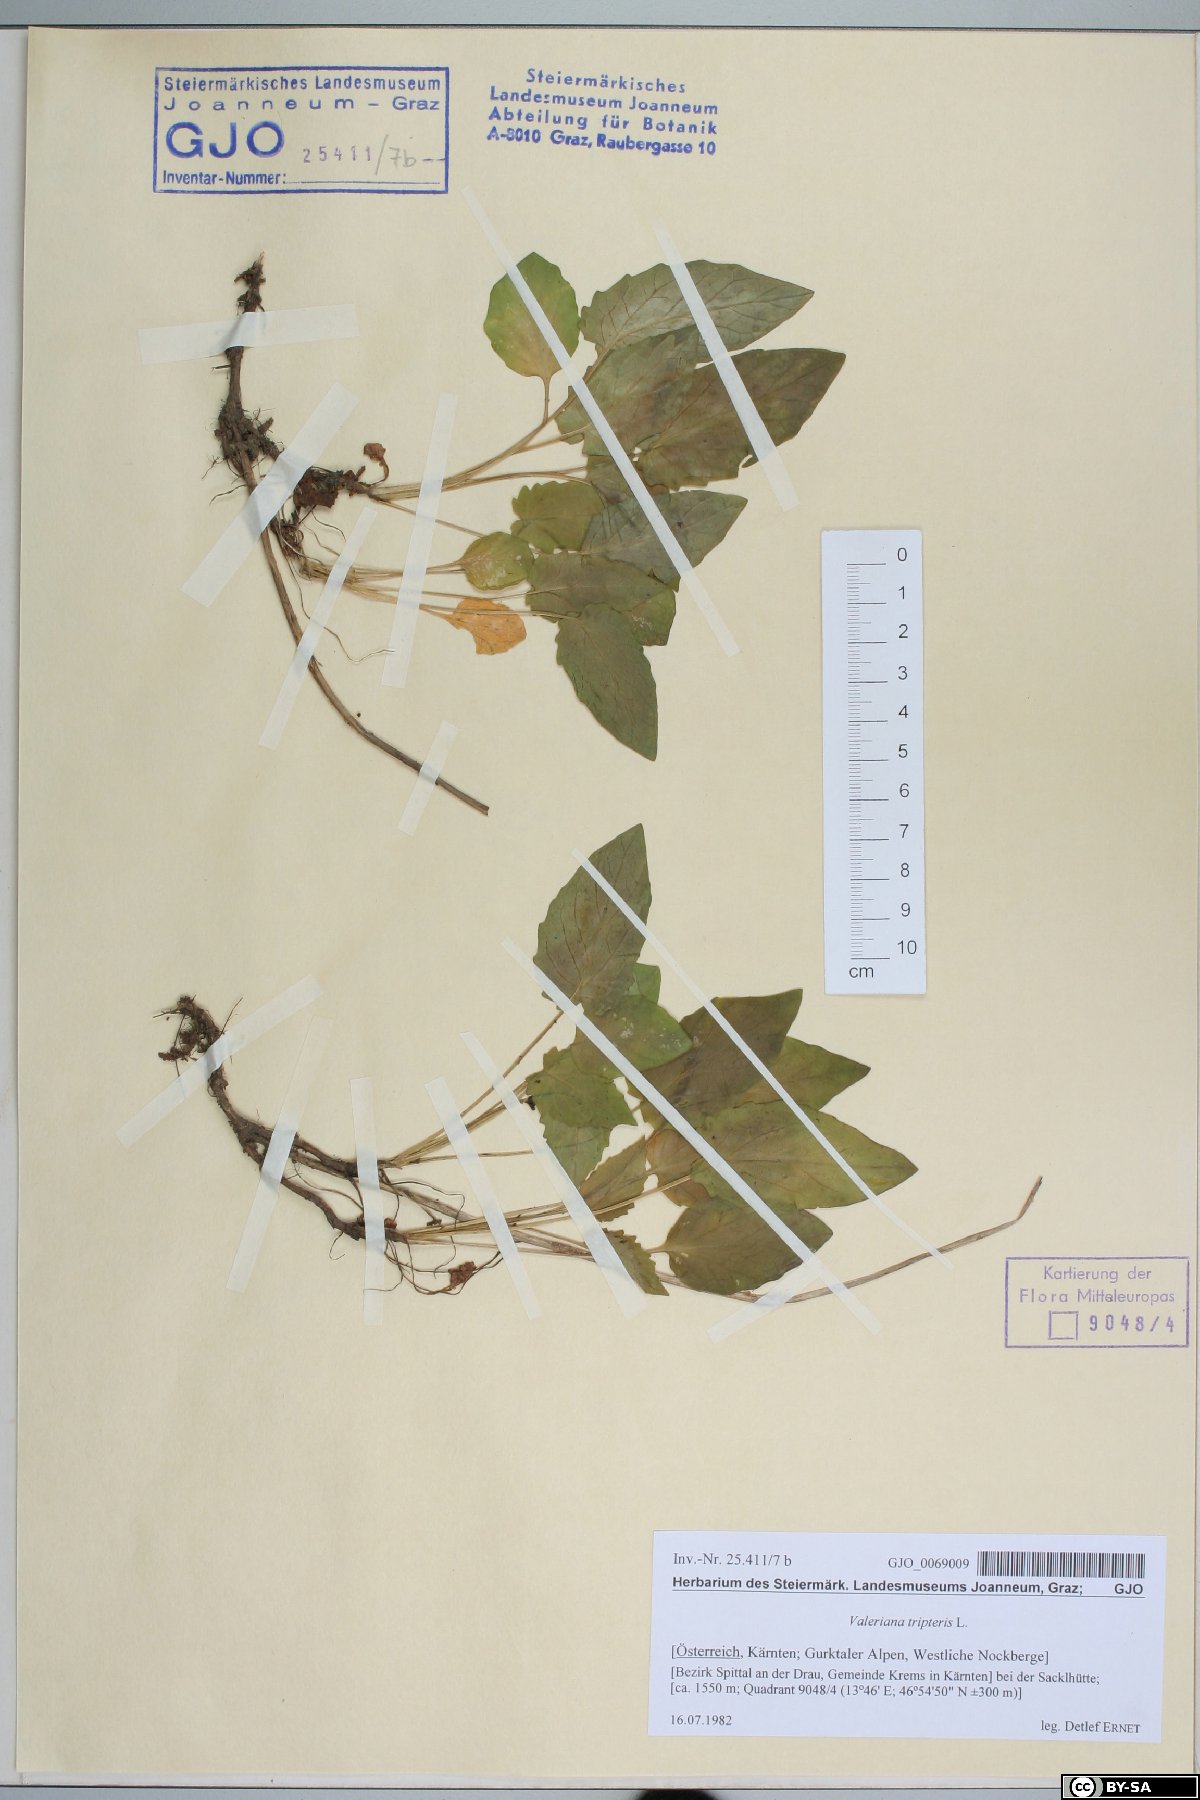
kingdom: Plantae
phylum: Tracheophyta
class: Magnoliopsida
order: Dipsacales
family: Caprifoliaceae
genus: Valeriana
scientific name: Valeriana tripteris
